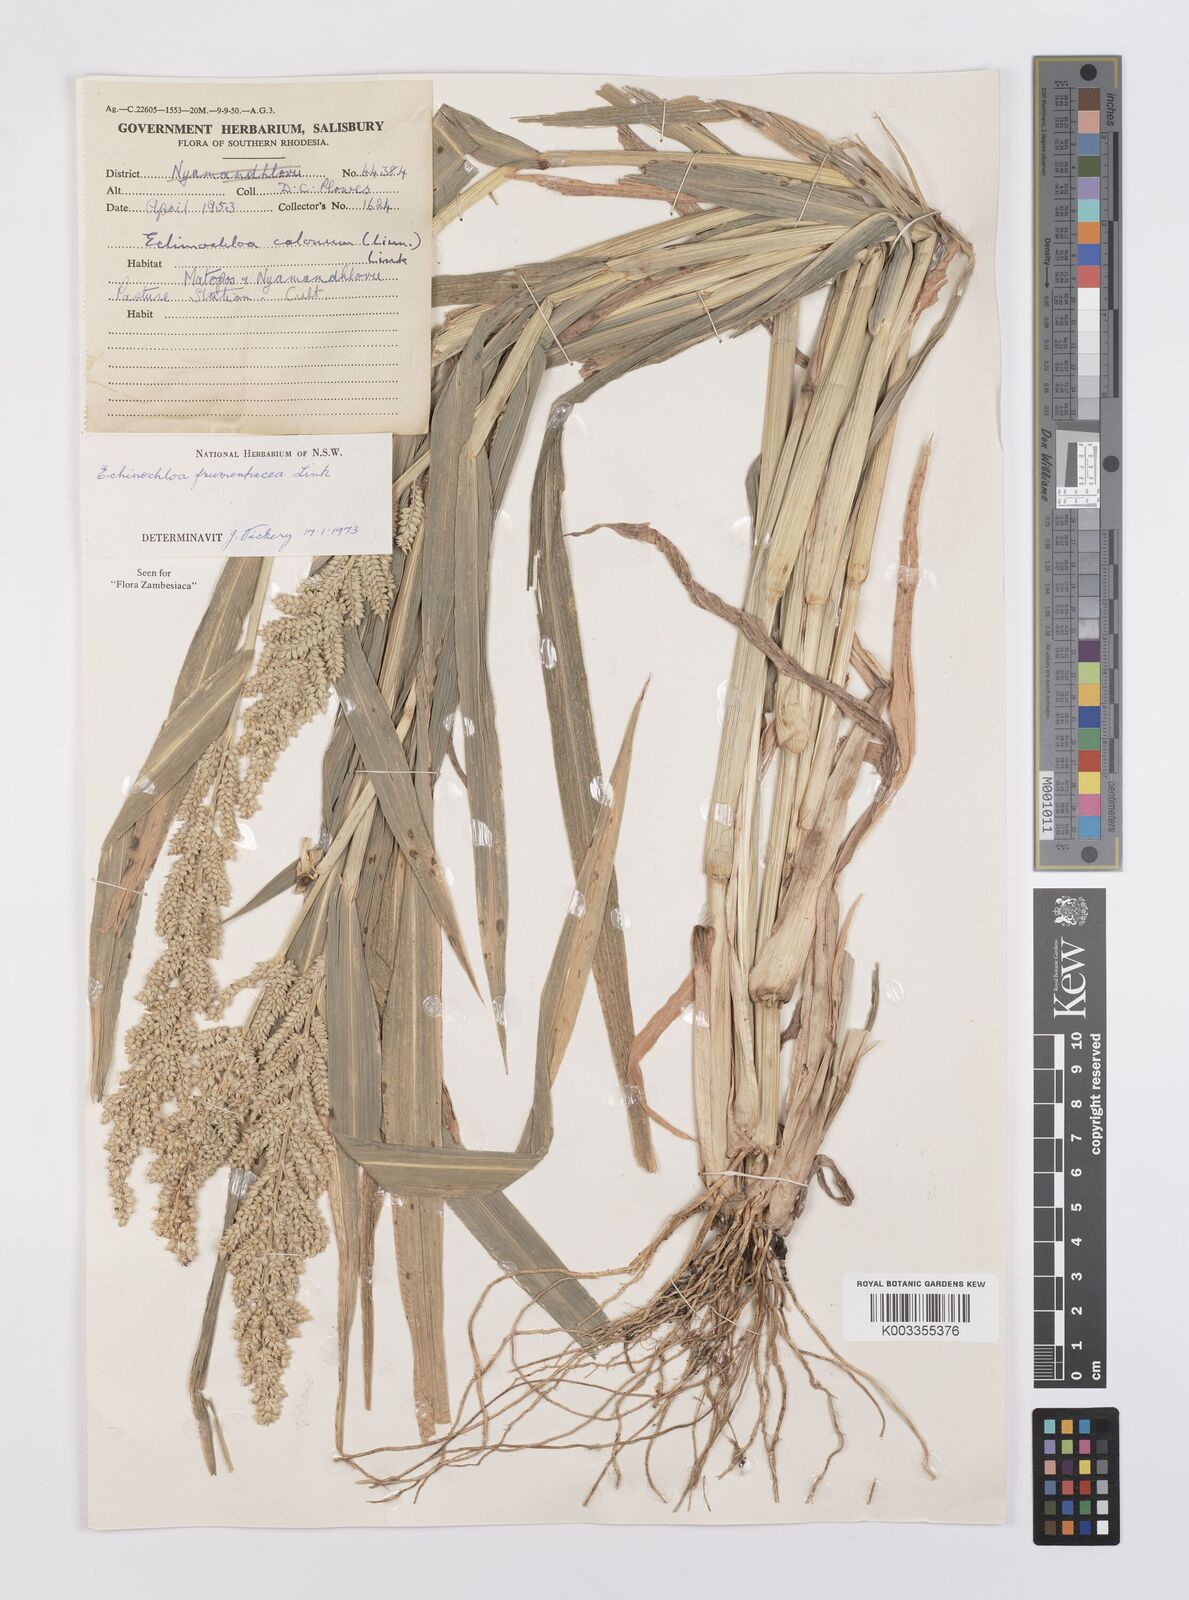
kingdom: Plantae
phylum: Tracheophyta
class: Liliopsida
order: Poales
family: Poaceae
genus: Echinochloa
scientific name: Echinochloa frumentacea
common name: Billion-dollar grass
